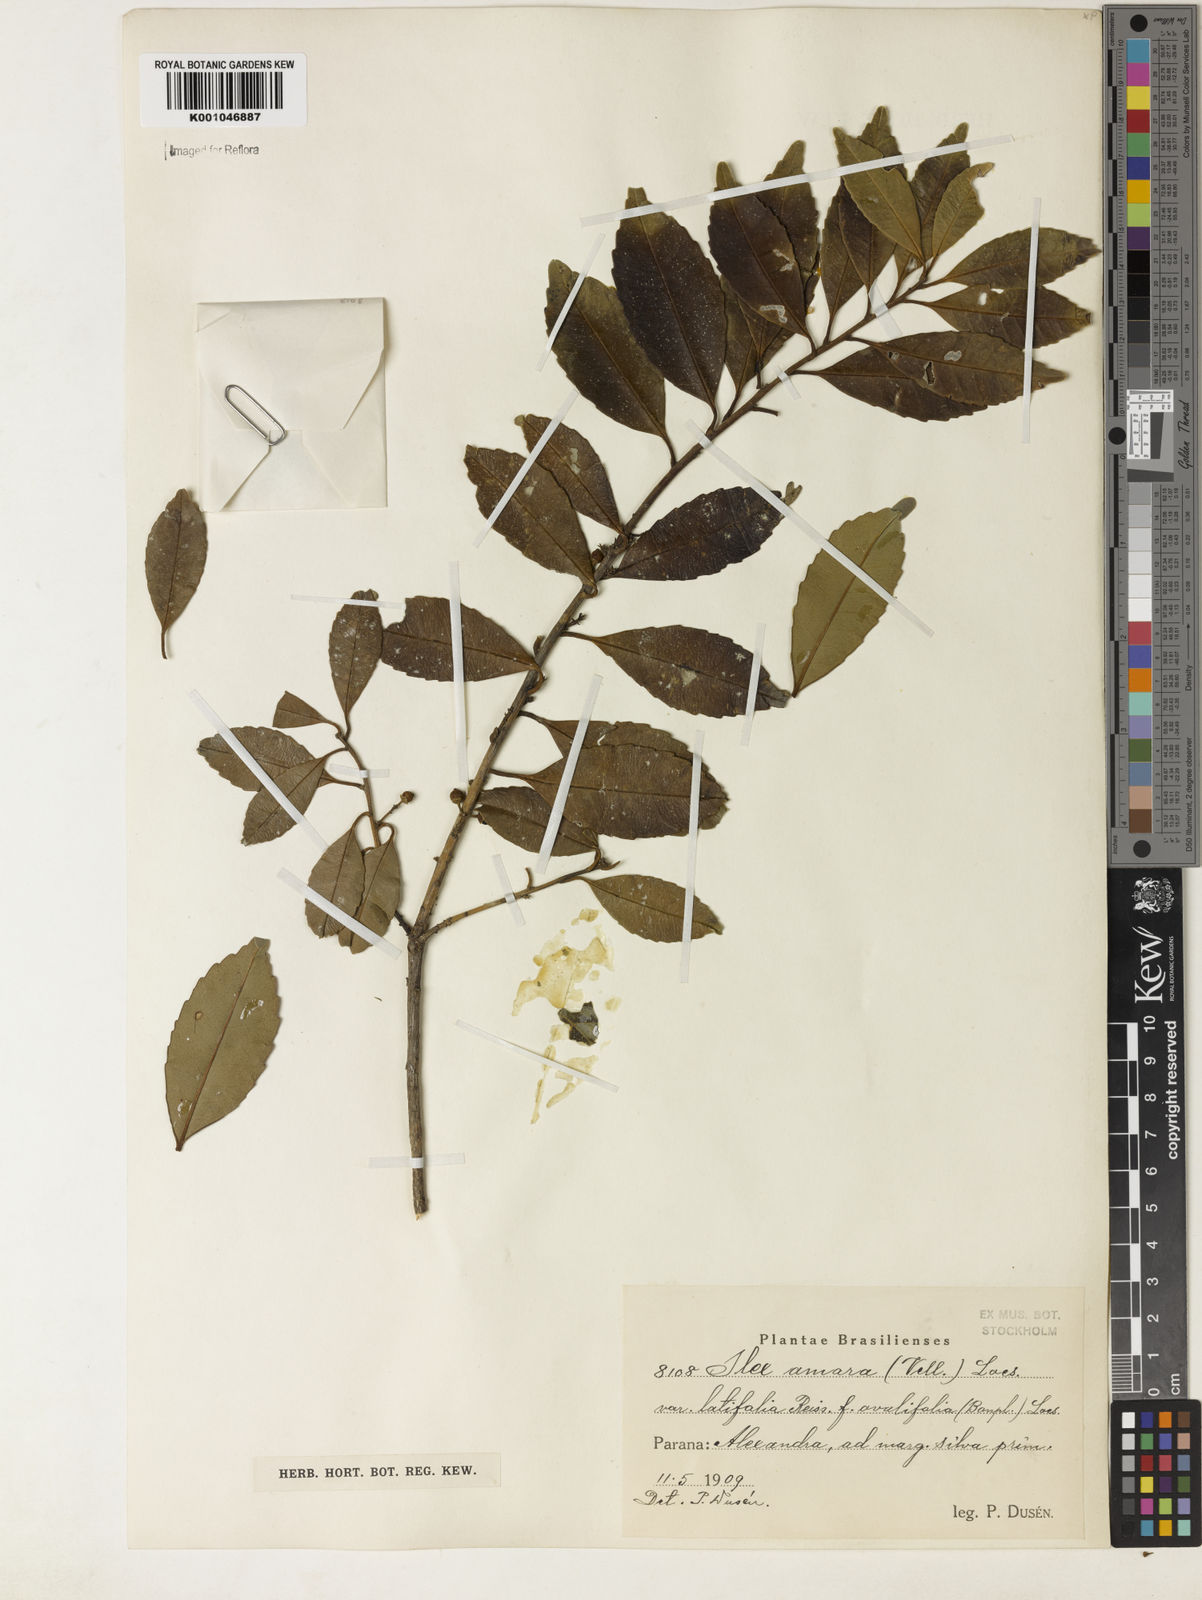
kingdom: Plantae
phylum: Tracheophyta
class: Magnoliopsida
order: Aquifoliales
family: Aquifoliaceae
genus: Ilex
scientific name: Ilex
